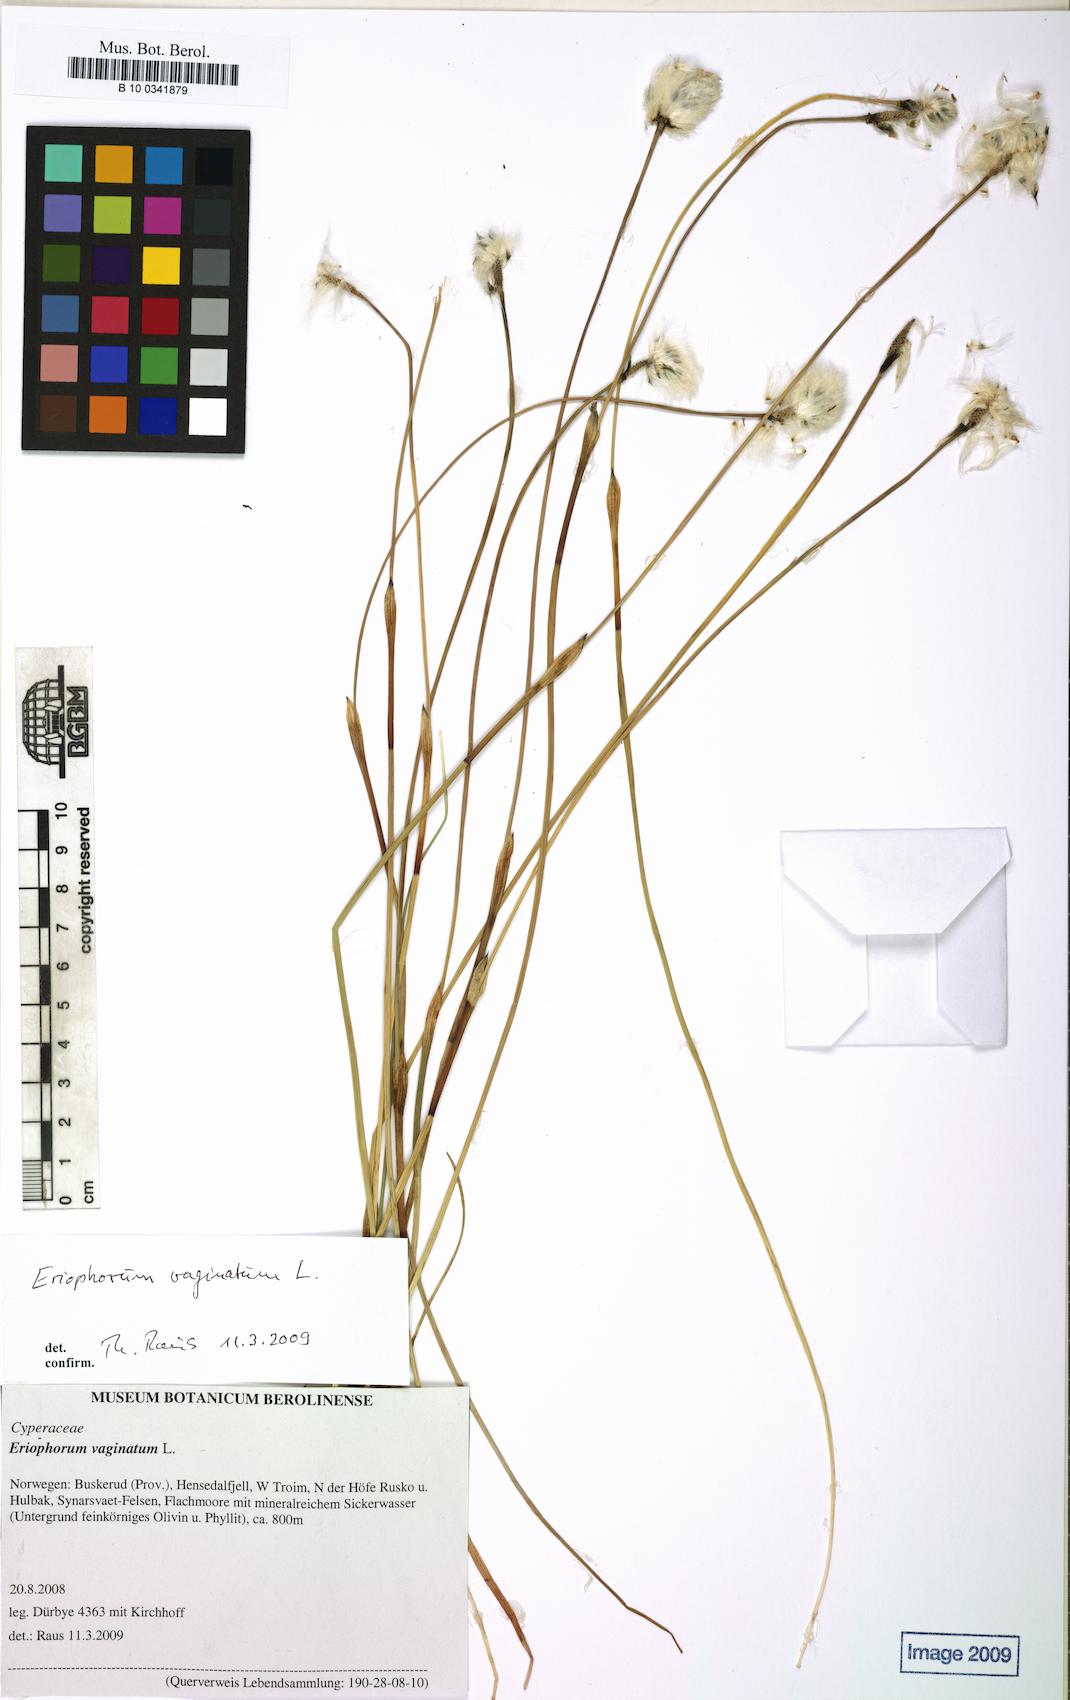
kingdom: Plantae
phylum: Tracheophyta
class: Liliopsida
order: Poales
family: Cyperaceae
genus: Eriophorum
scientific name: Eriophorum vaginatum
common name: Hare's-tail cottongrass
